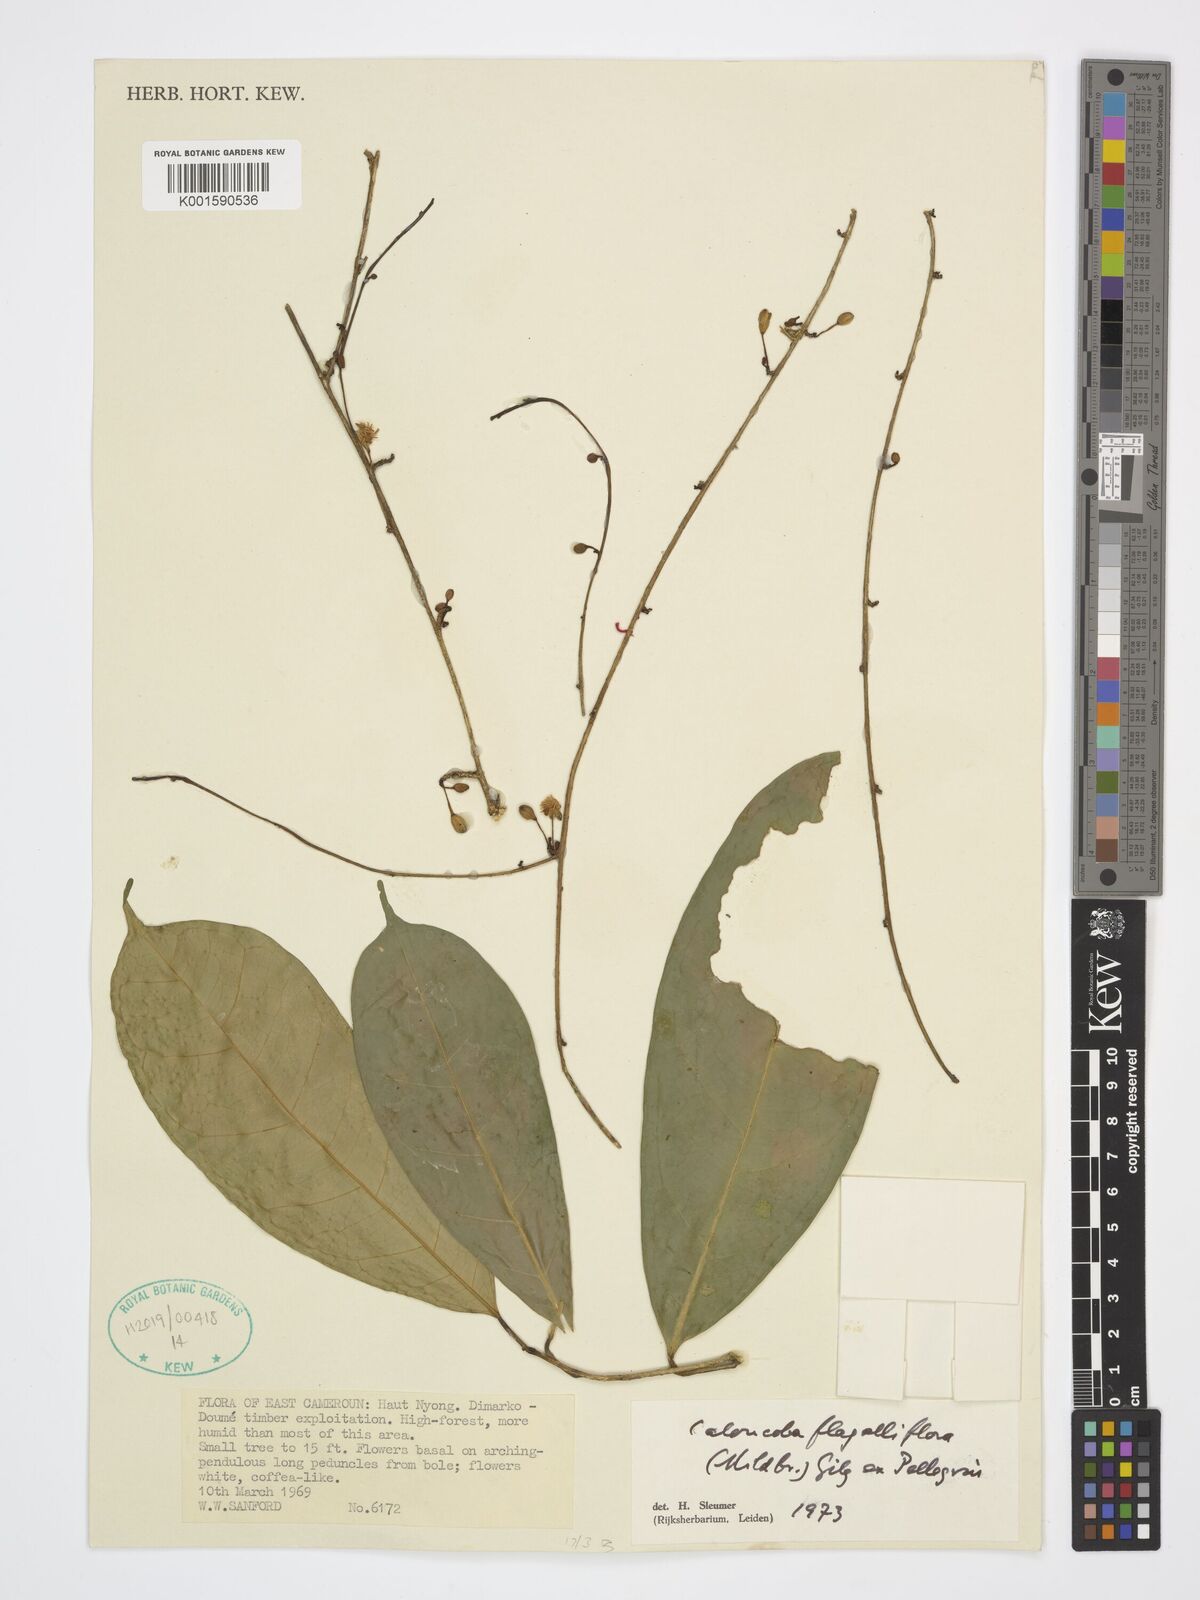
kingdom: Plantae
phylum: Tracheophyta
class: Magnoliopsida
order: Malpighiales
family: Achariaceae
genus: Caloncoba
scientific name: Caloncoba flagelliflora
